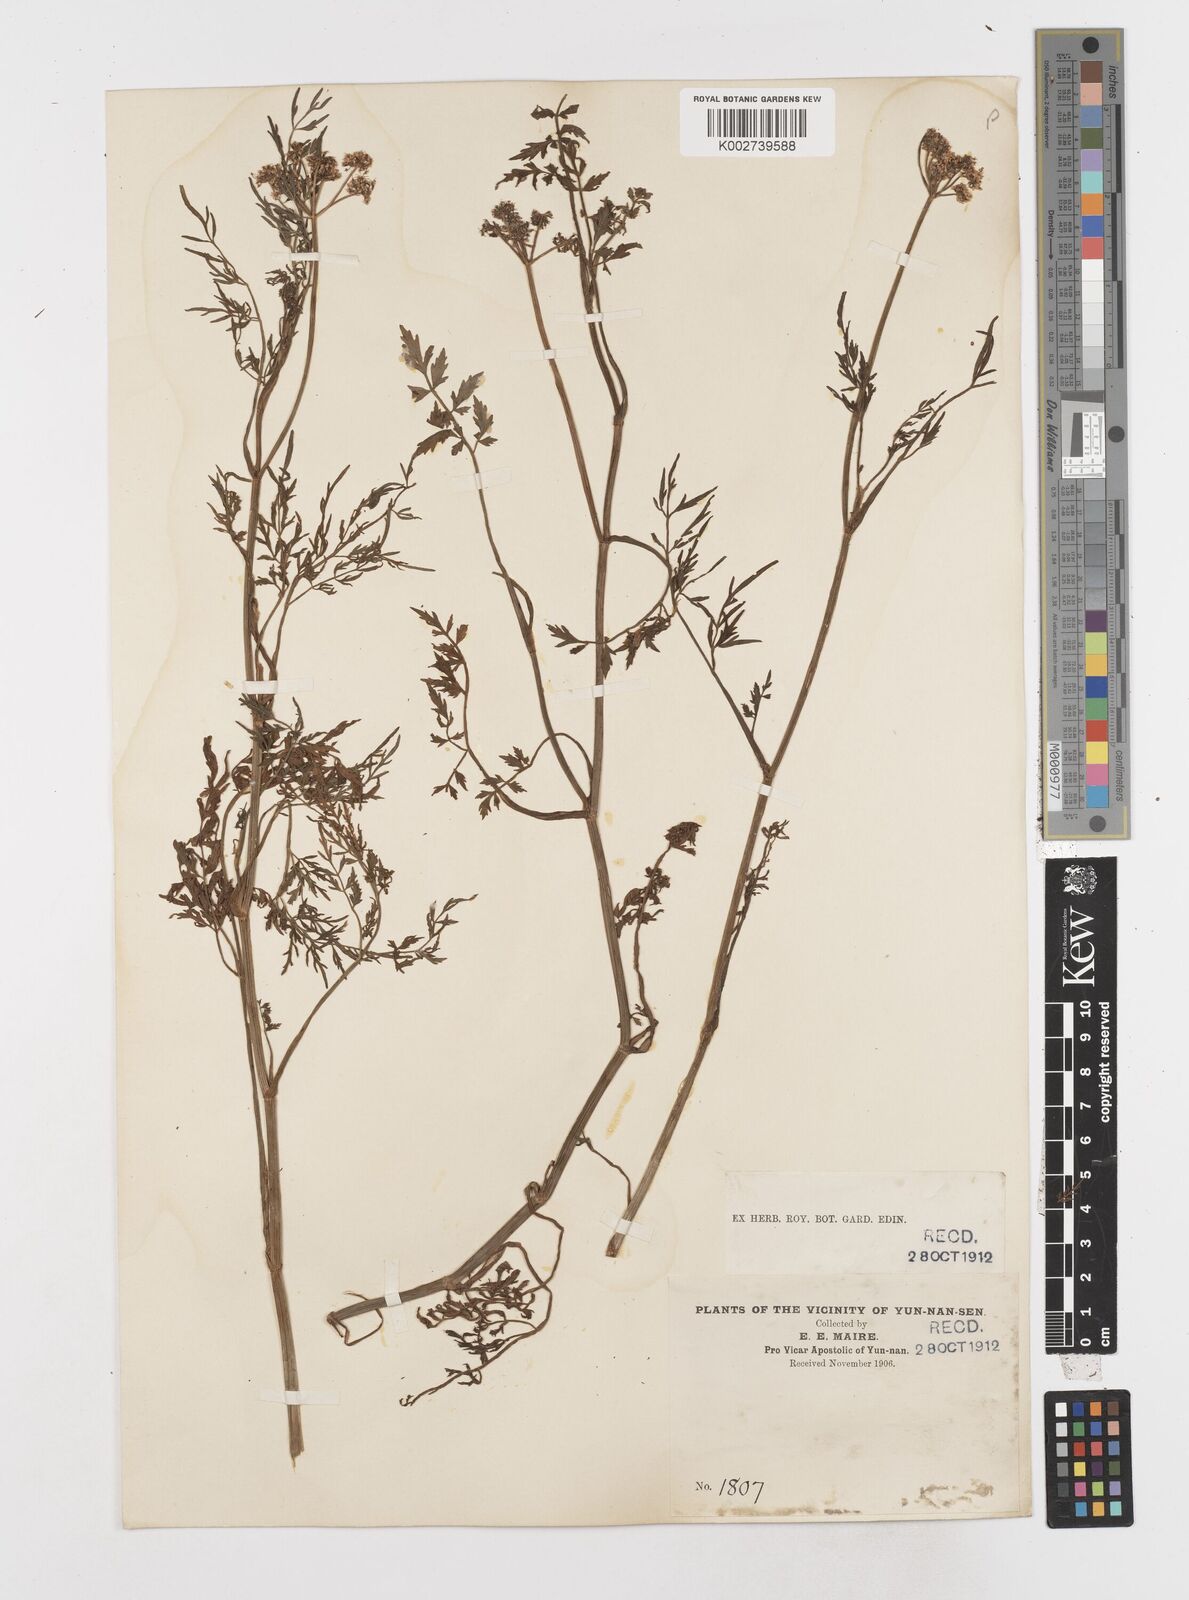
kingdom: Plantae
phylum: Tracheophyta
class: Magnoliopsida
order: Apiales
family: Apiaceae
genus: Oenanthe
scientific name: Oenanthe
